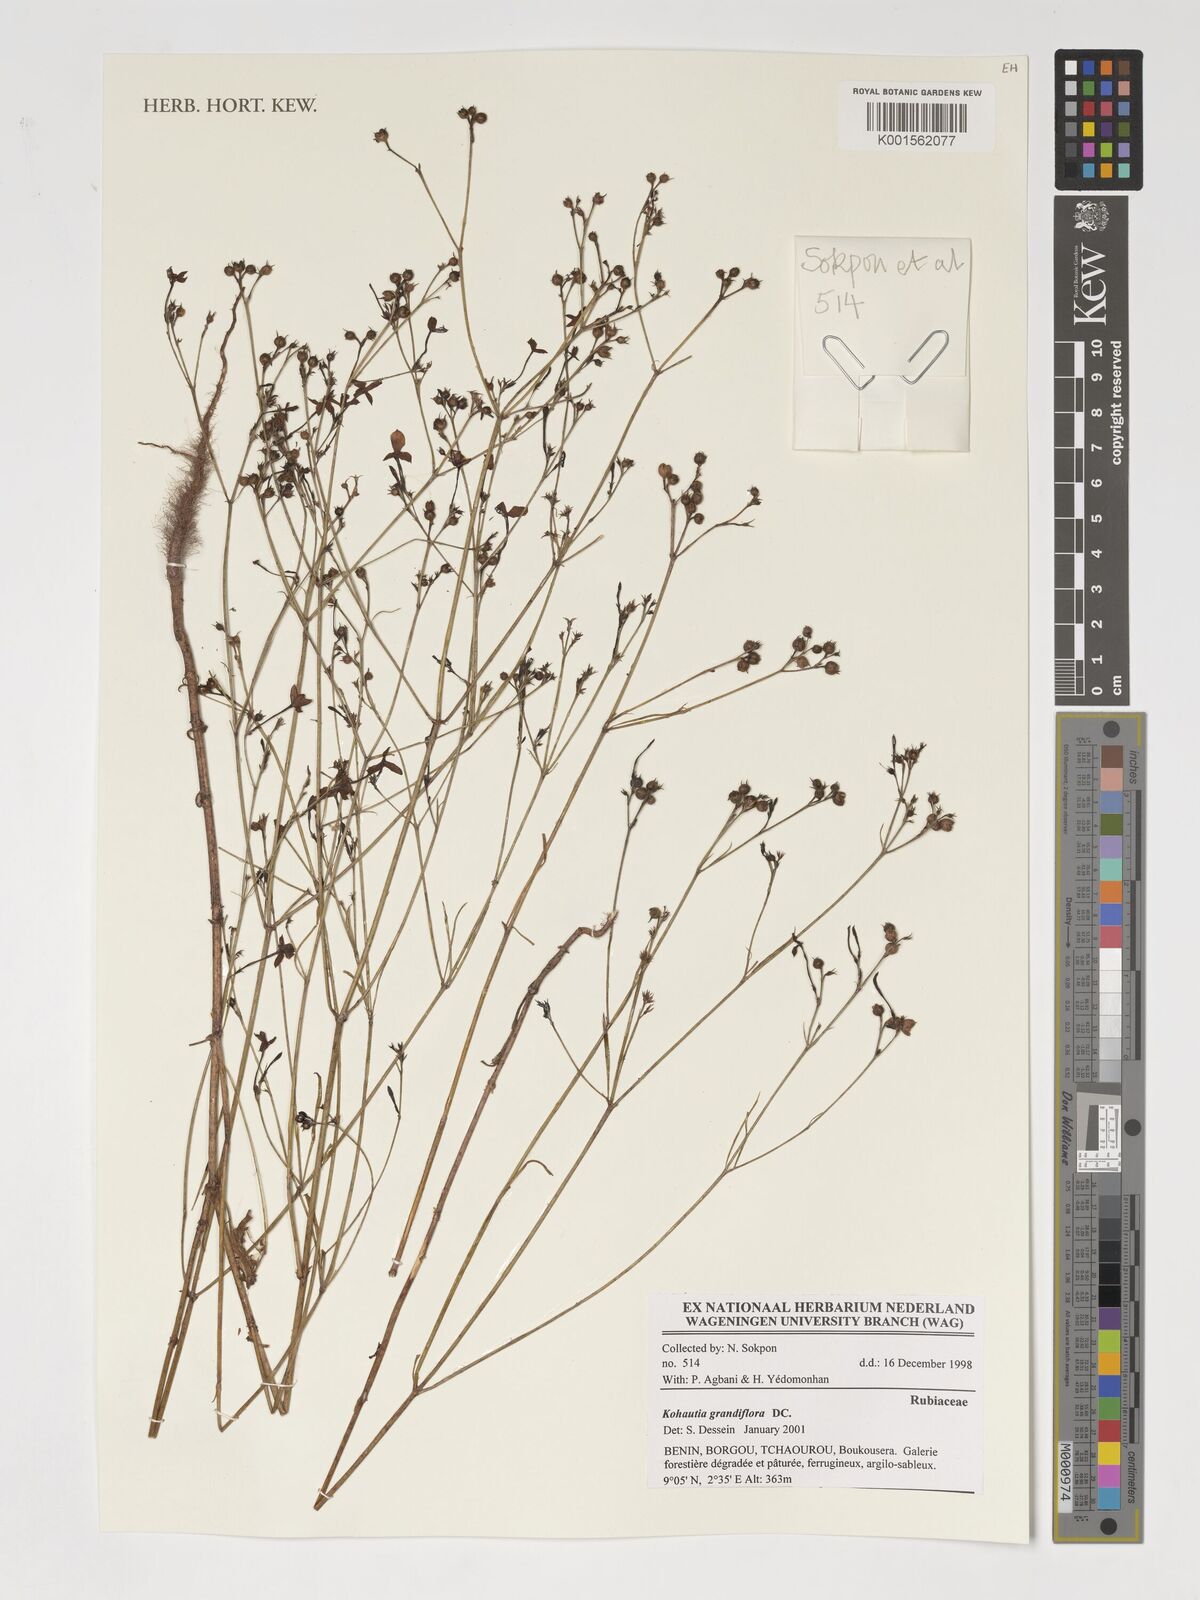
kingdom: Plantae
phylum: Tracheophyta
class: Magnoliopsida
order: Gentianales
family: Rubiaceae
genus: Kohautia
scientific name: Kohautia grandiflora
